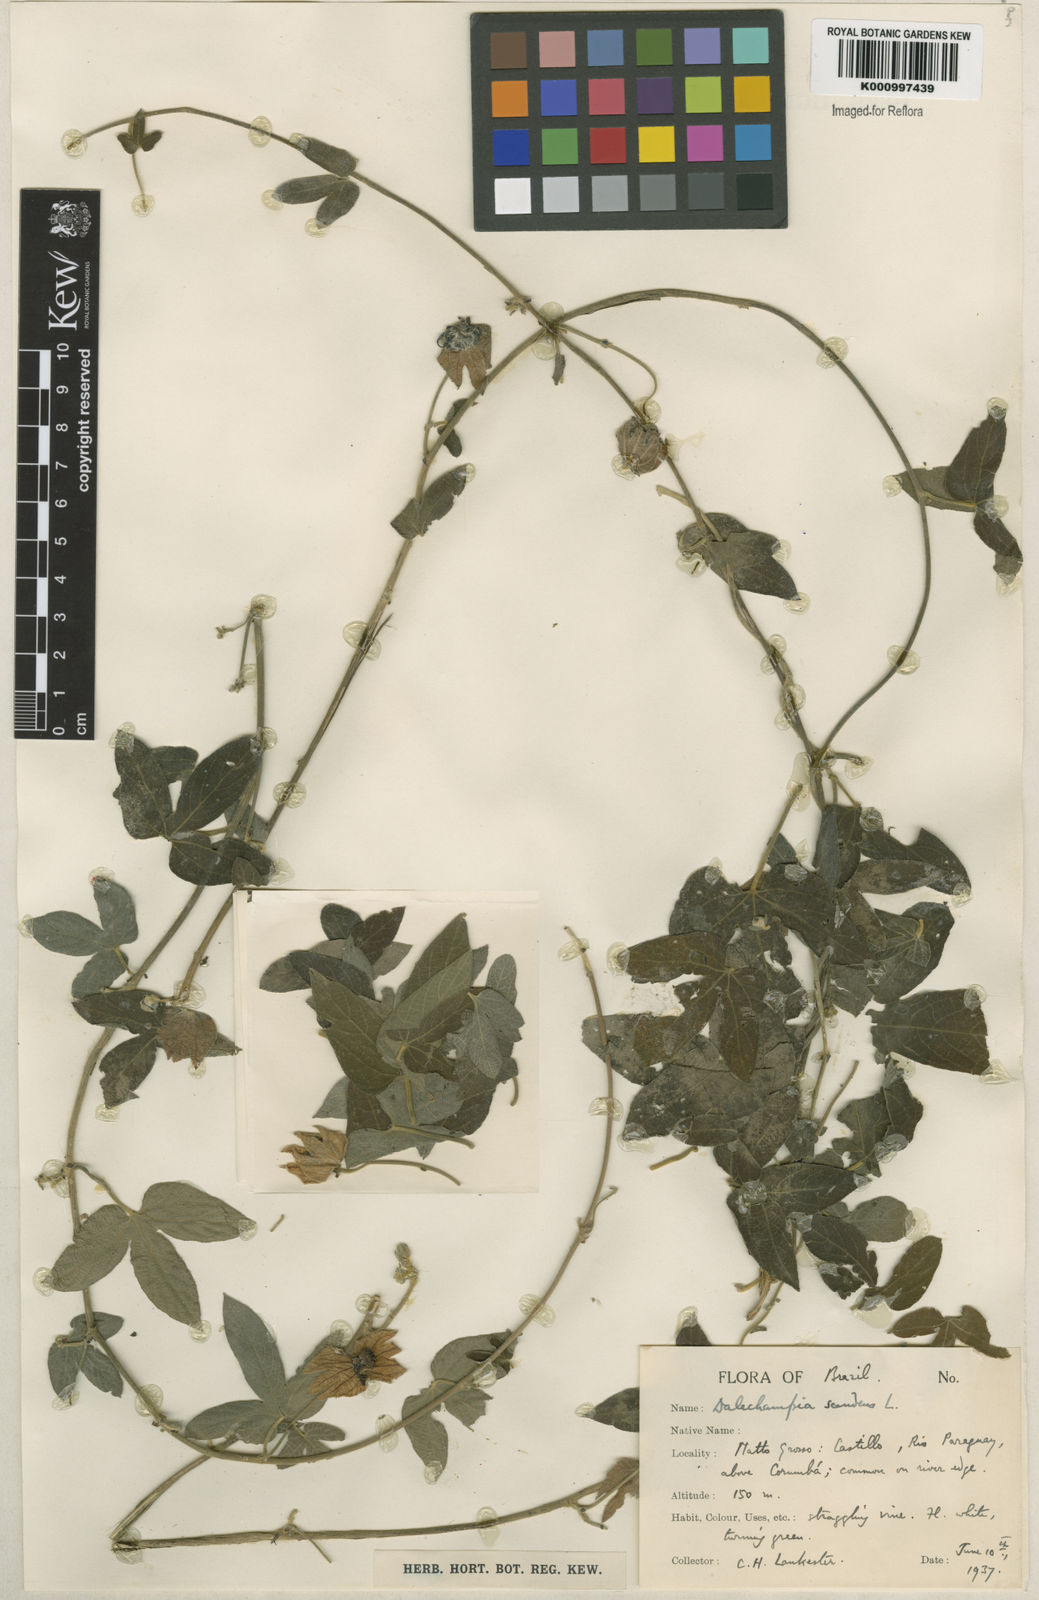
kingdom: Plantae
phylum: Tracheophyta
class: Magnoliopsida
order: Malpighiales
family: Euphorbiaceae
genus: Dalechampia
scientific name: Dalechampia scandens
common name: Spurgecreeper
